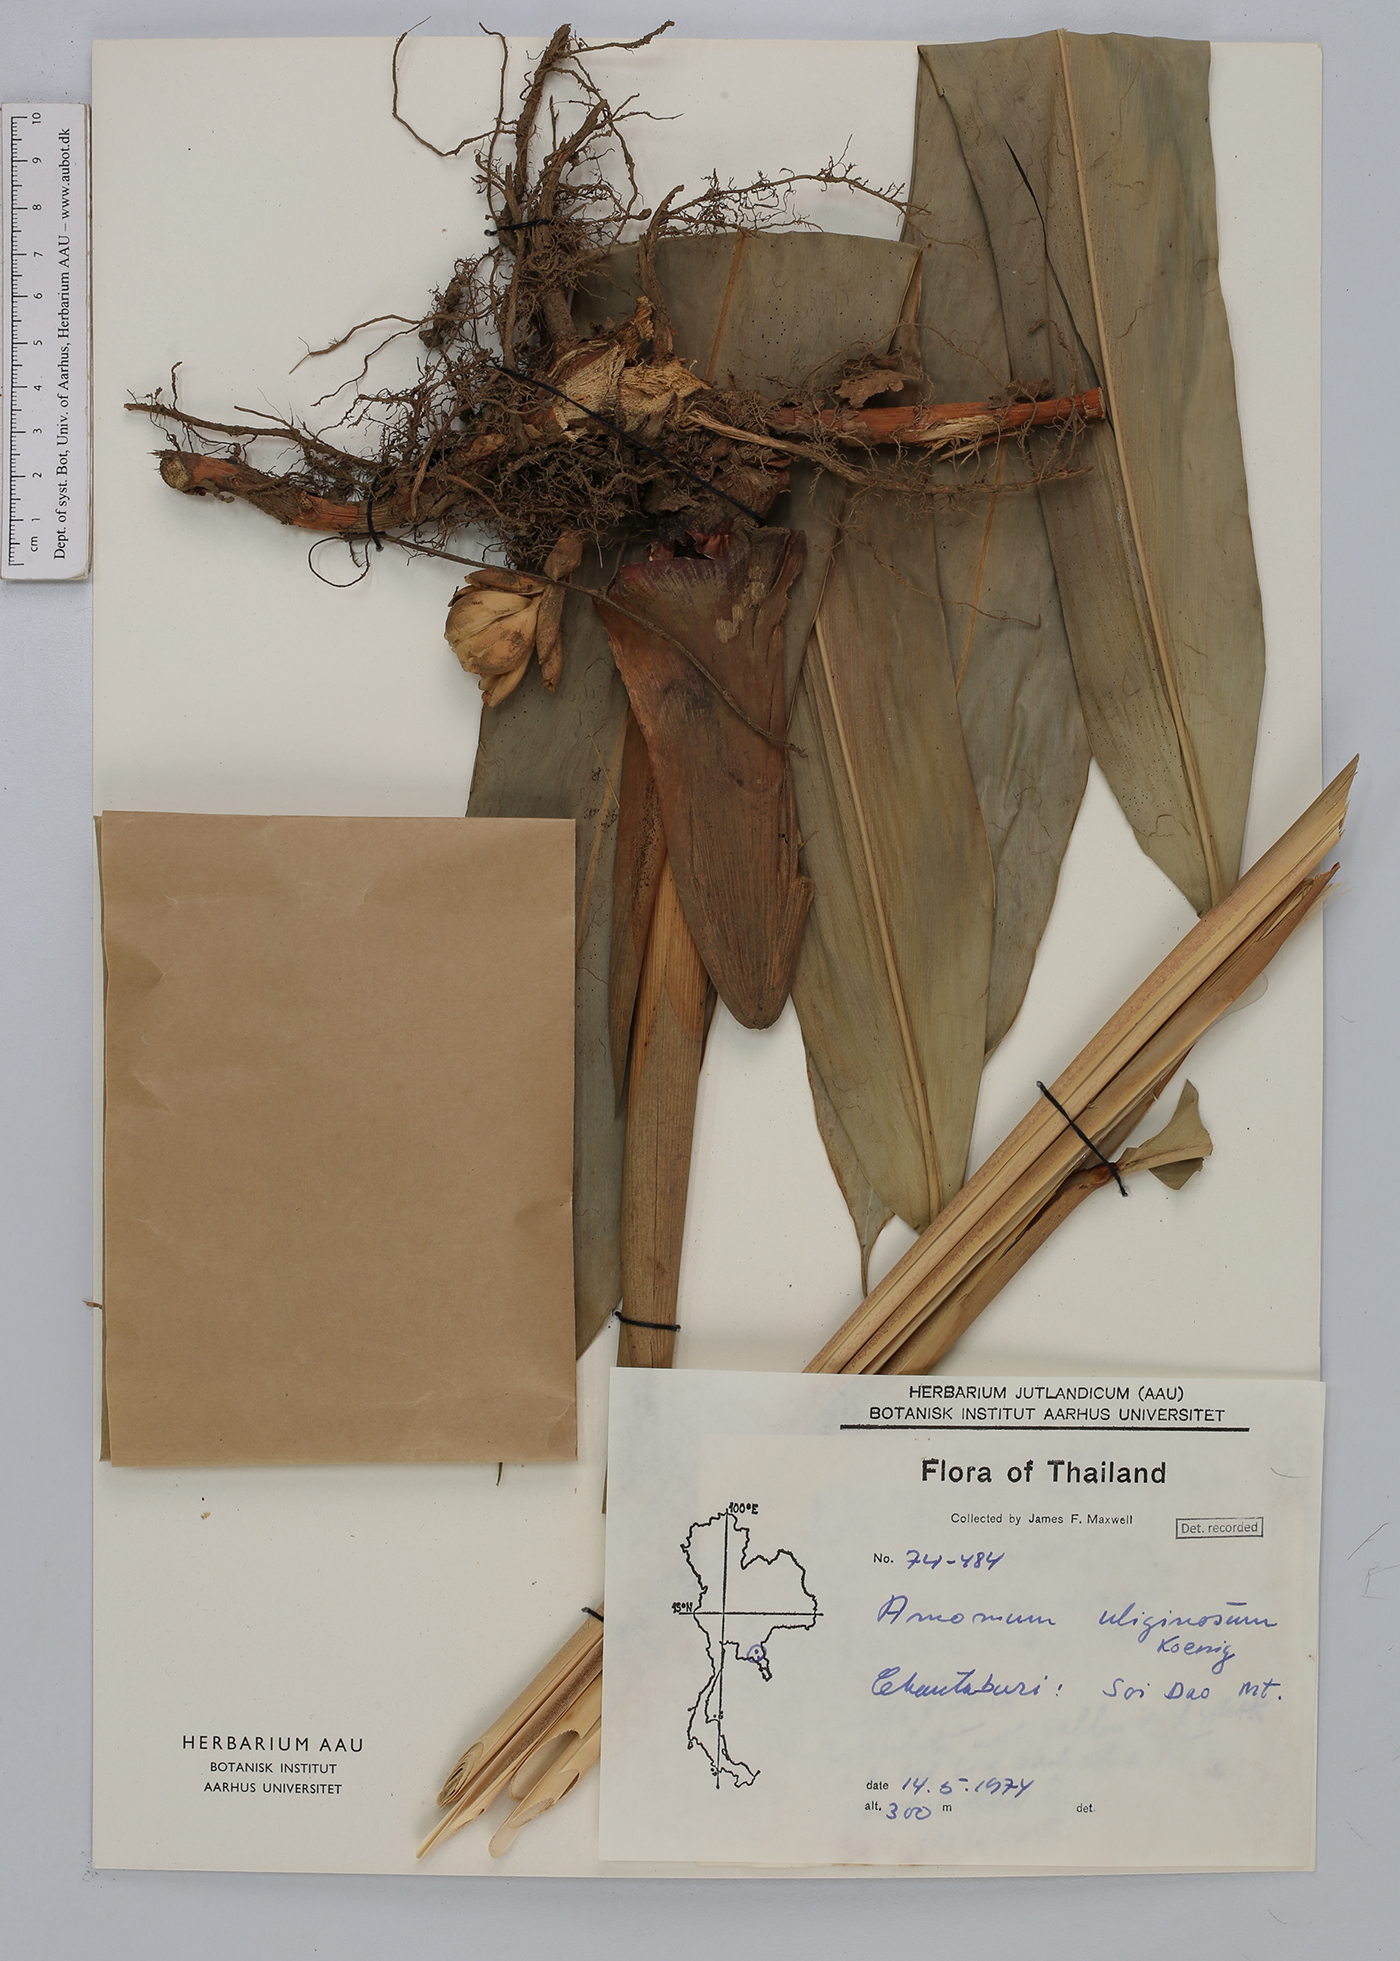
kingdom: Plantae
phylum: Tracheophyta
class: Liliopsida
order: Zingiberales
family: Zingiberaceae
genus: Wurfbainia
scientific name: Wurfbainia uliginosa
